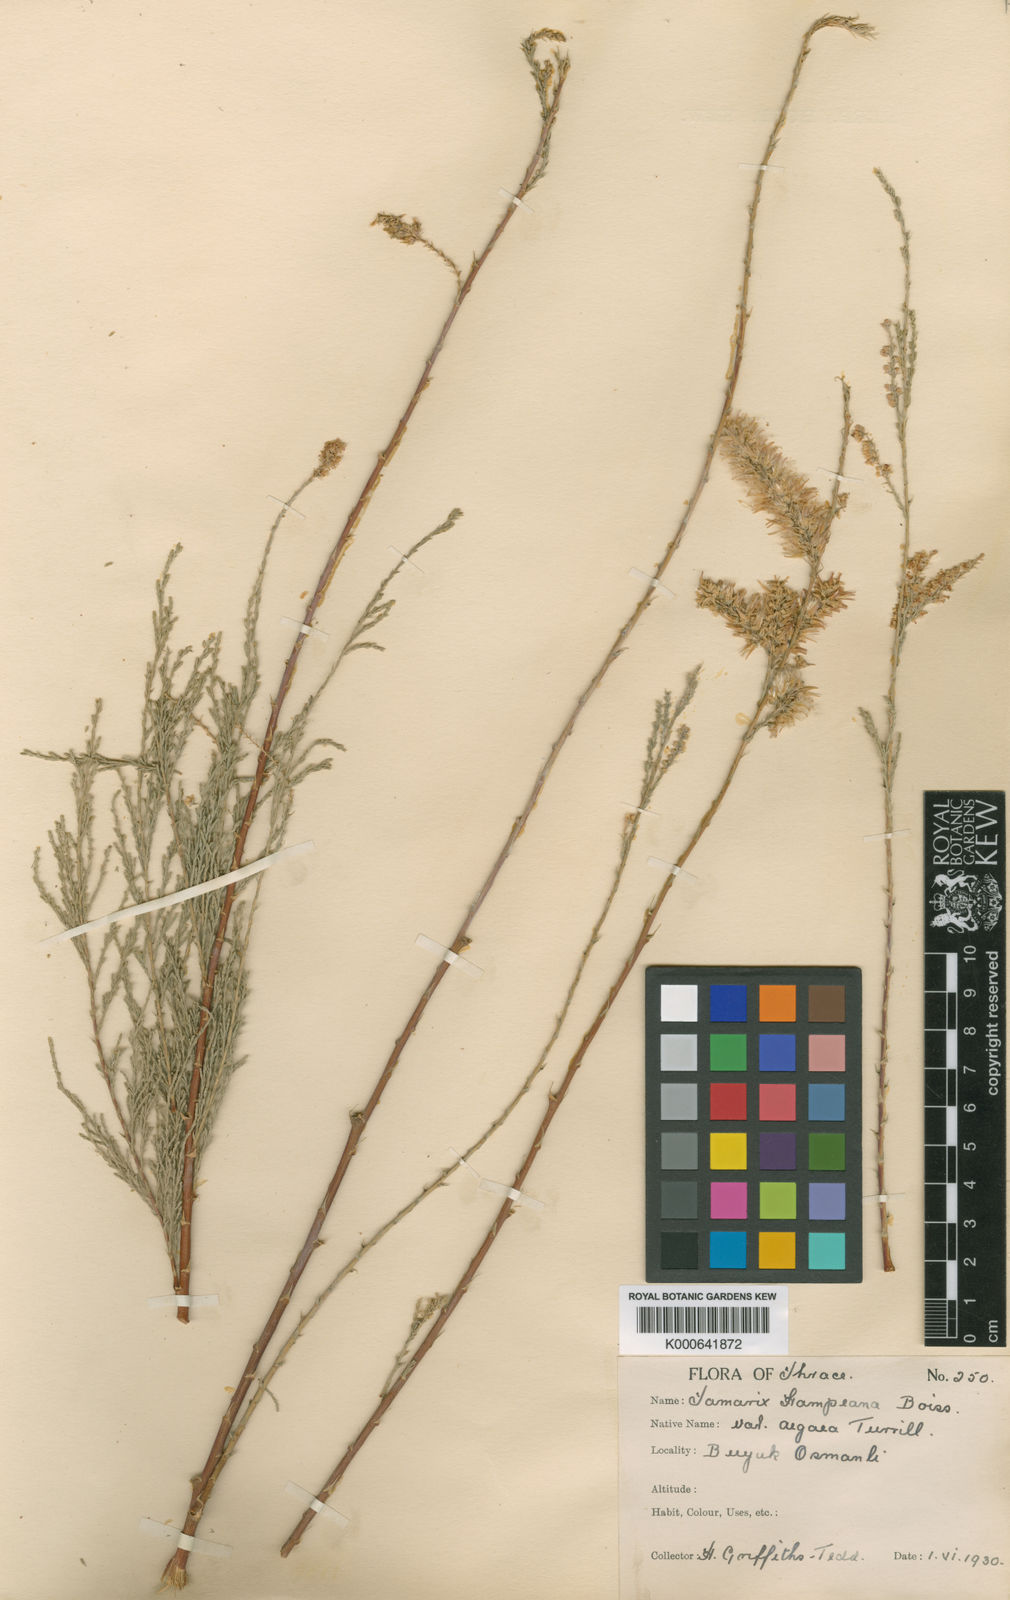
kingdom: Plantae
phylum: Tracheophyta
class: Magnoliopsida
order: Caryophyllales
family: Tamaricaceae
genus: Tamarix
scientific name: Tamarix hampeana
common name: Hampe’s tamarisk
